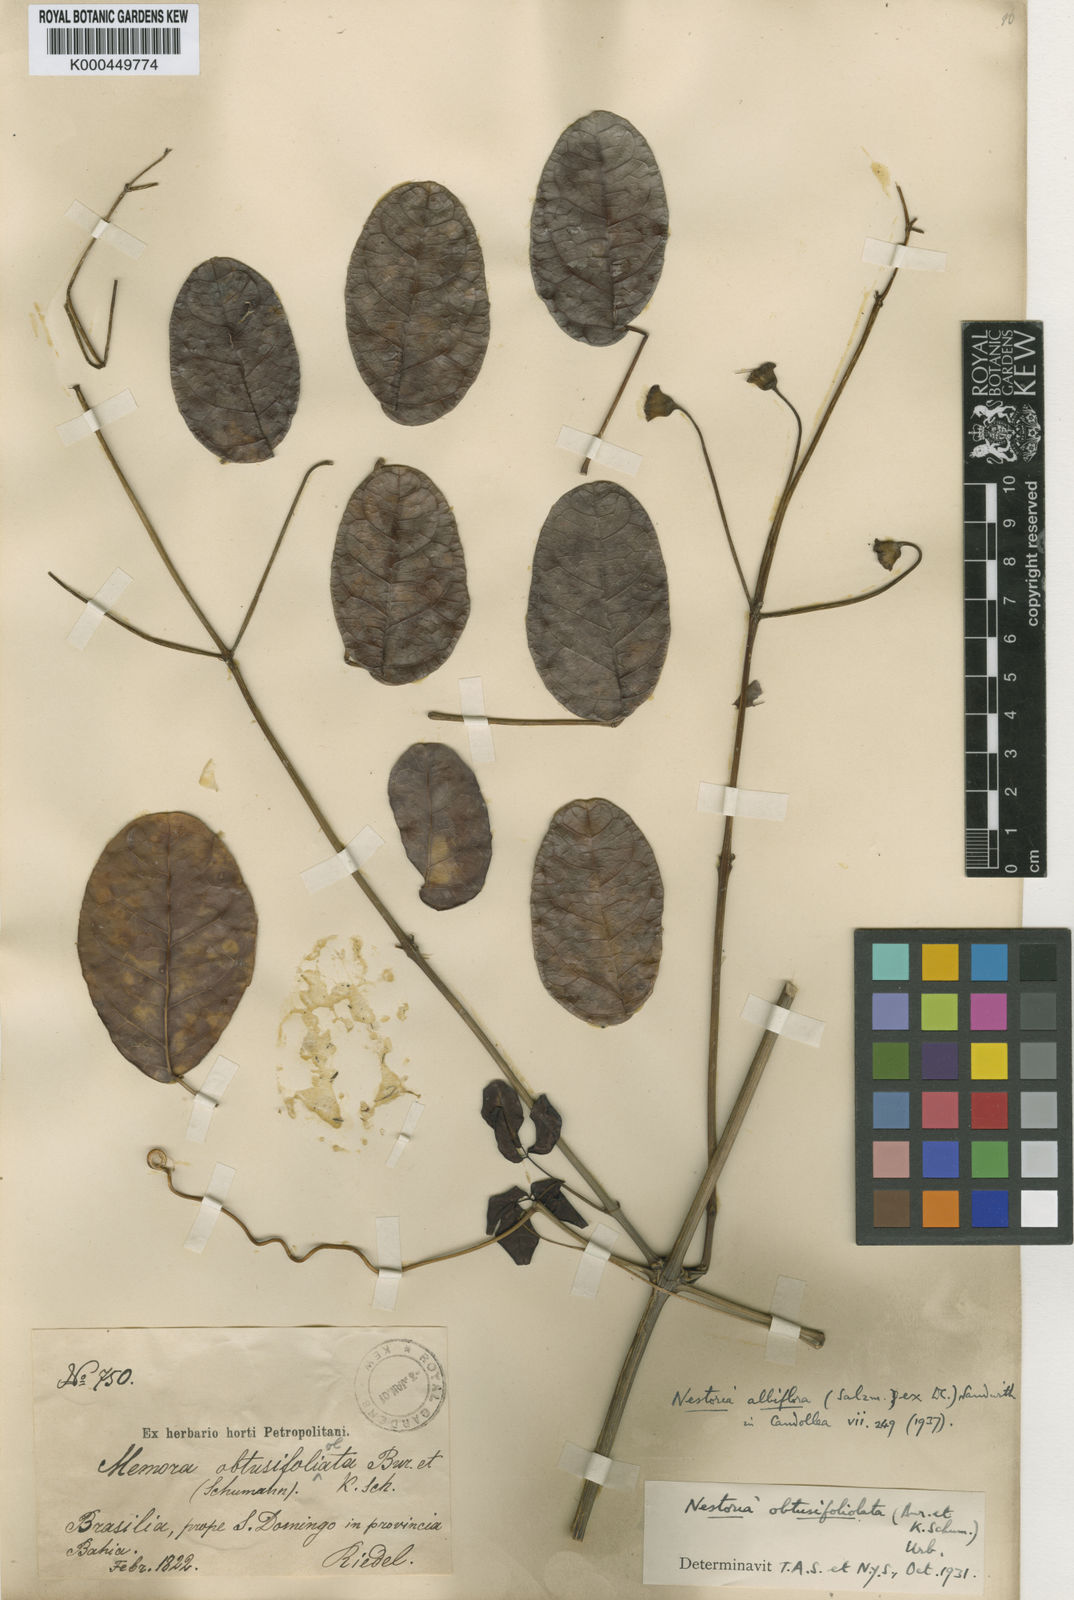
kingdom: Plantae
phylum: Tracheophyta
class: Magnoliopsida
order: Lamiales
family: Bignoniaceae
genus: Adenocalymma
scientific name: Adenocalymma albiflorum
